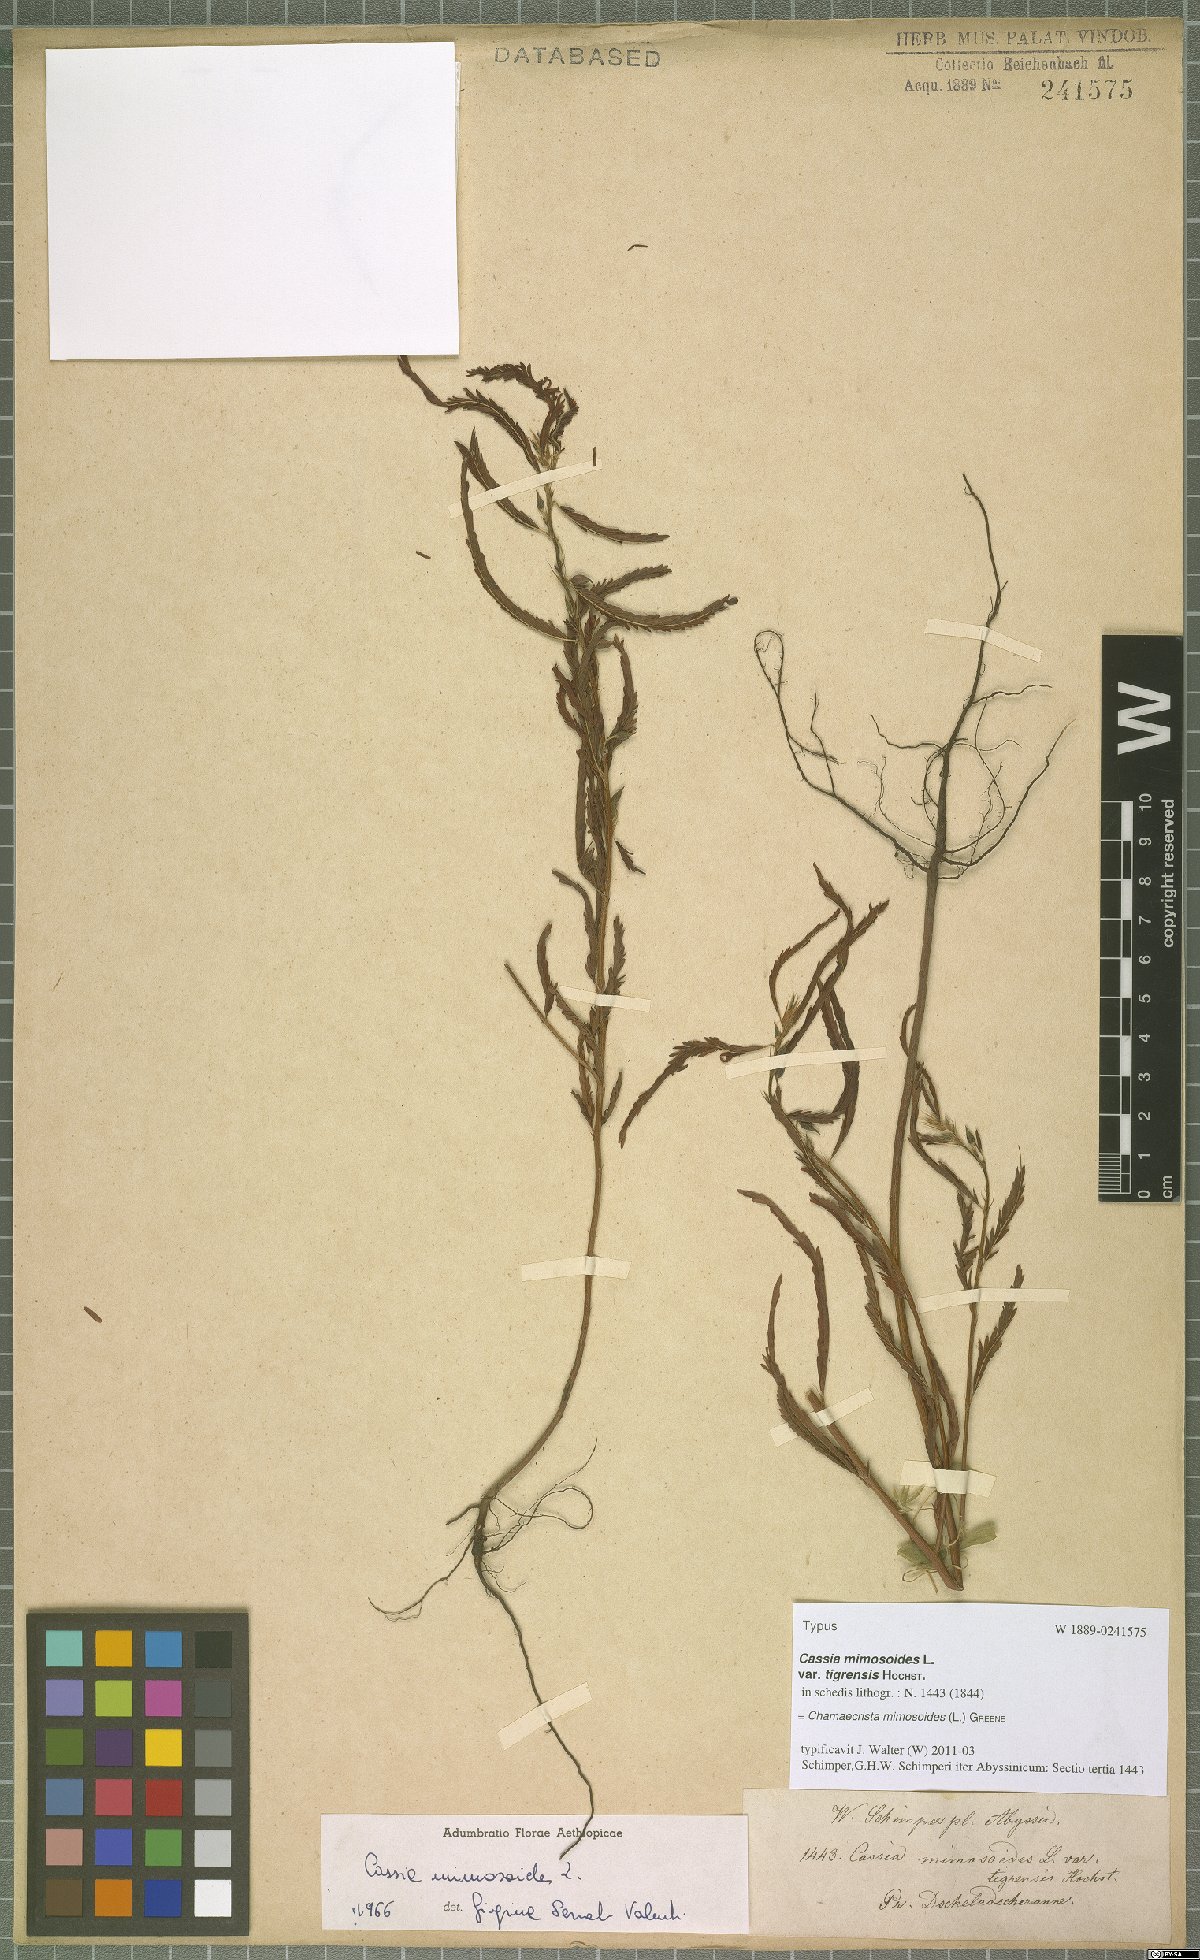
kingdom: Plantae
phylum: Tracheophyta
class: Magnoliopsida
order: Fabales
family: Fabaceae
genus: Chamaecrista
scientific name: Chamaecrista mimosoides
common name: Fish-bone cassia
